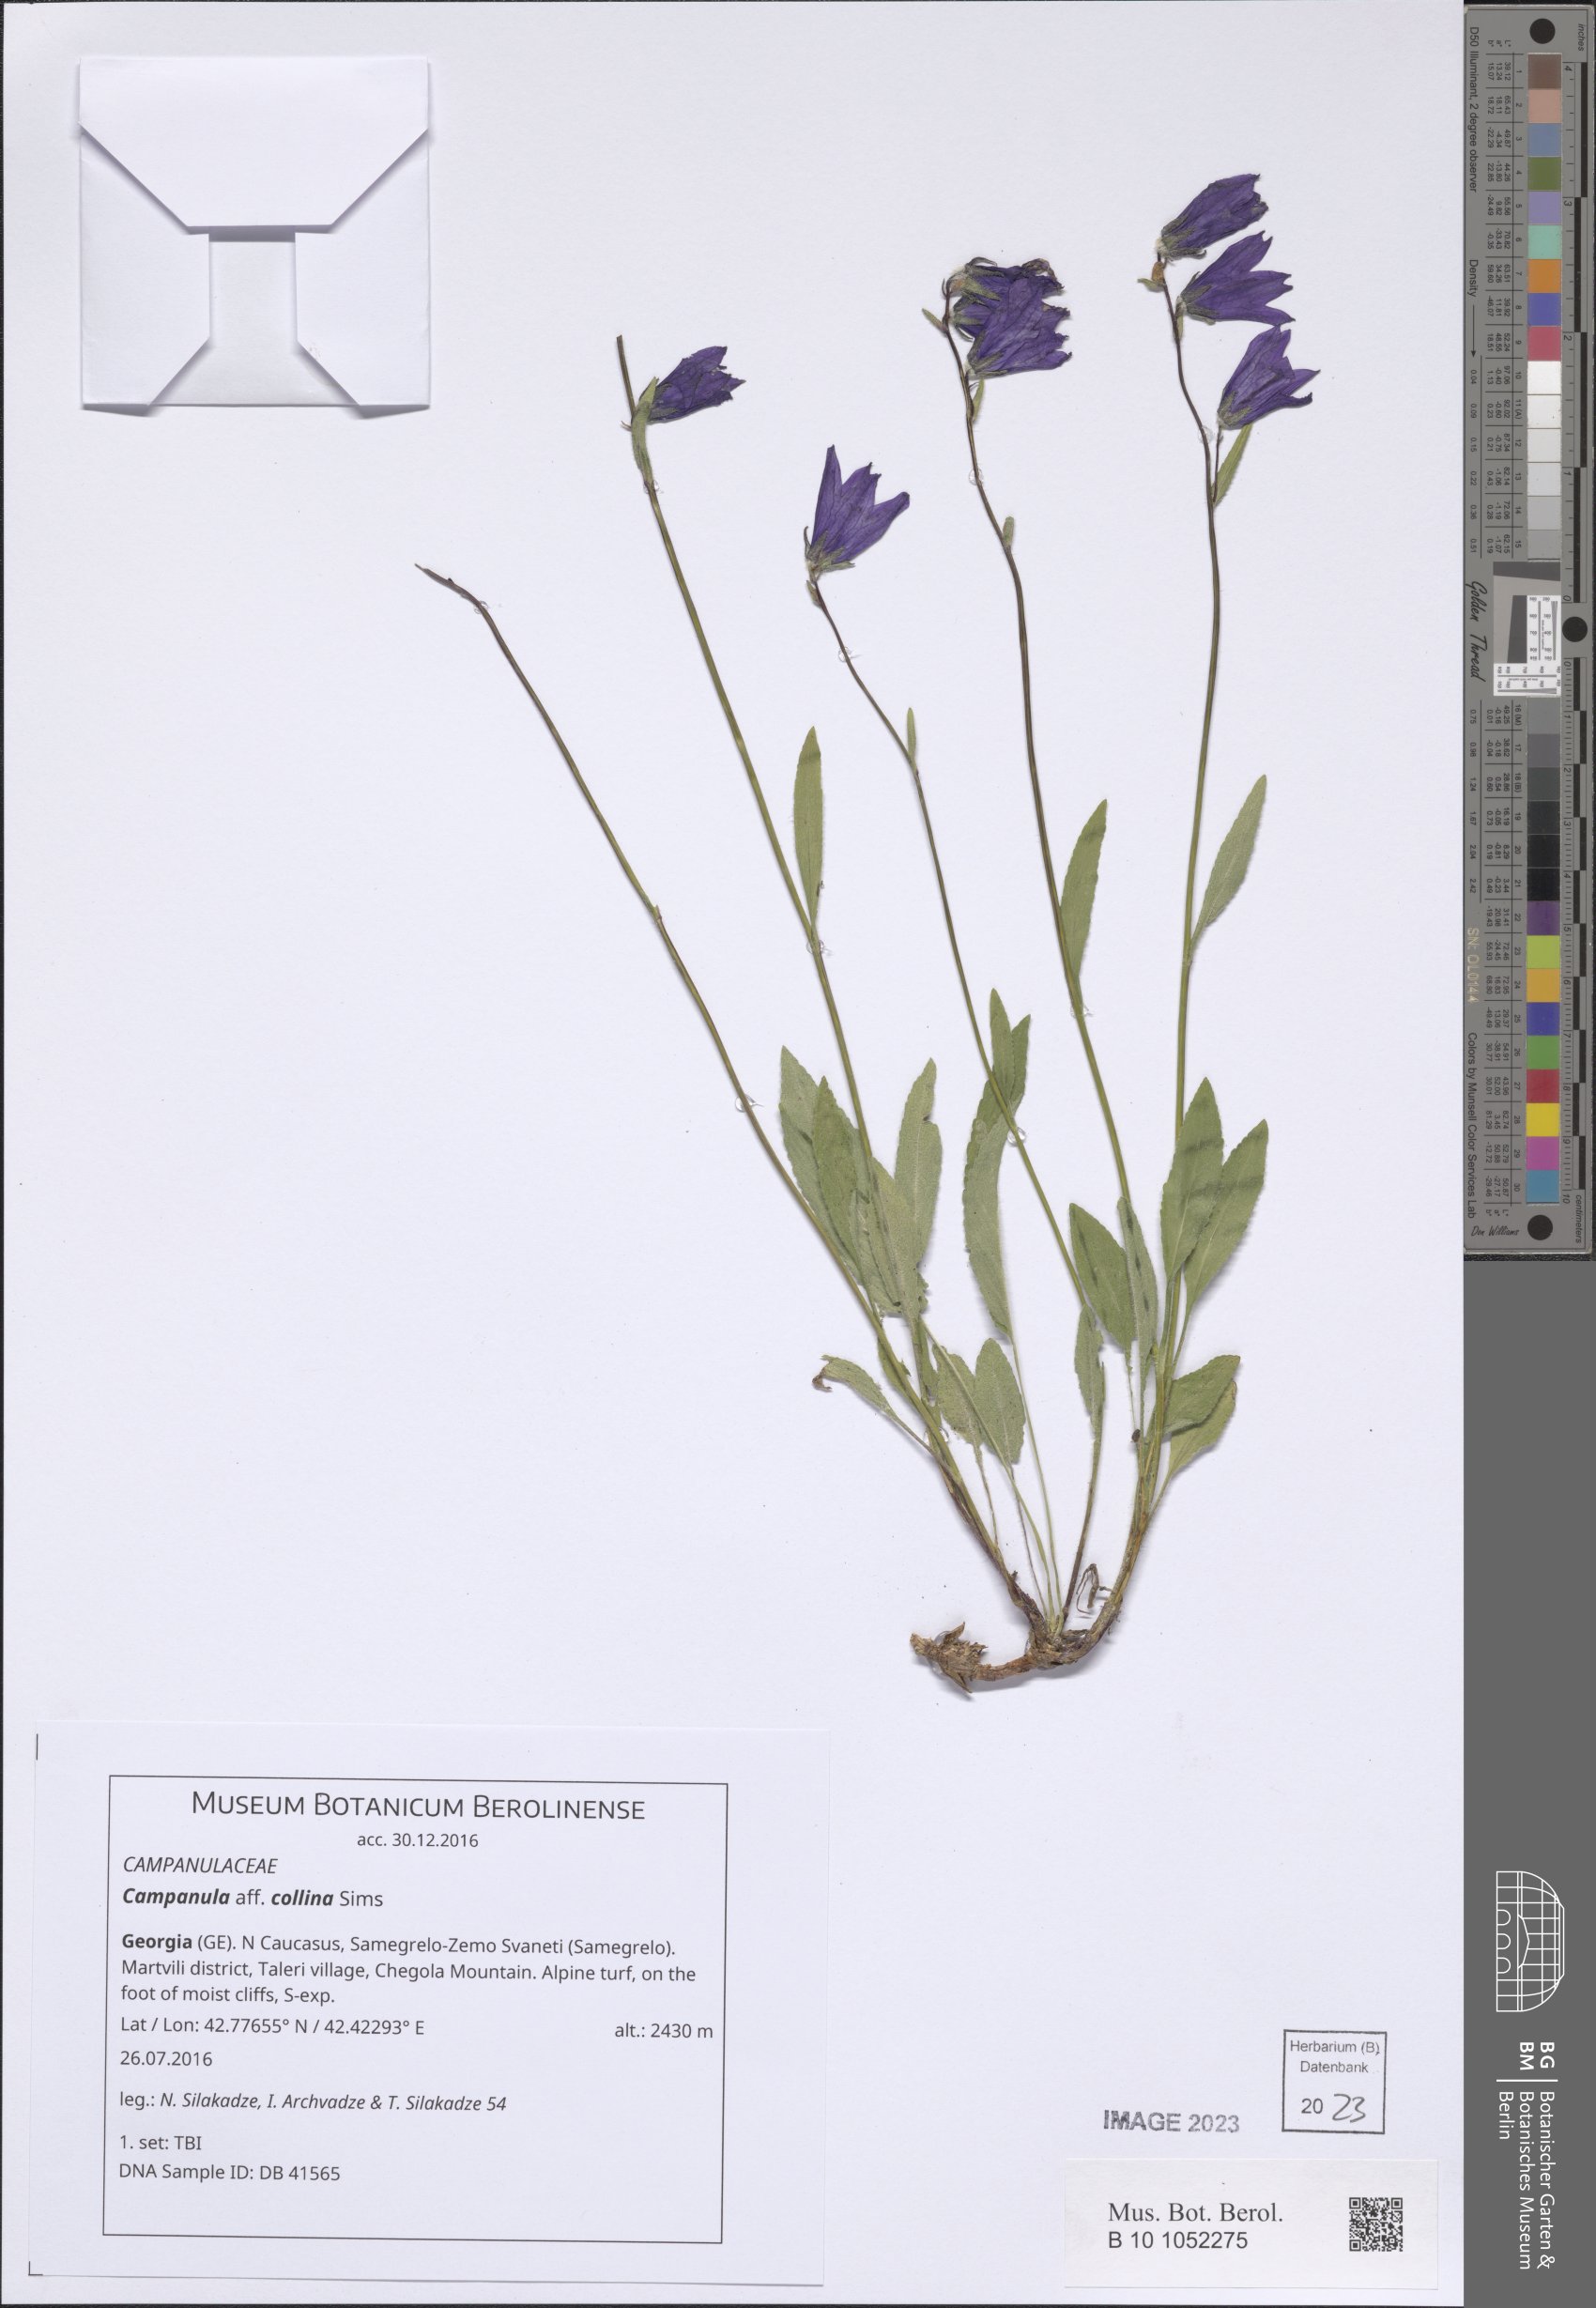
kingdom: Plantae
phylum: Tracheophyta
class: Magnoliopsida
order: Asterales
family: Campanulaceae
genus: Campanula
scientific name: Campanula collina
